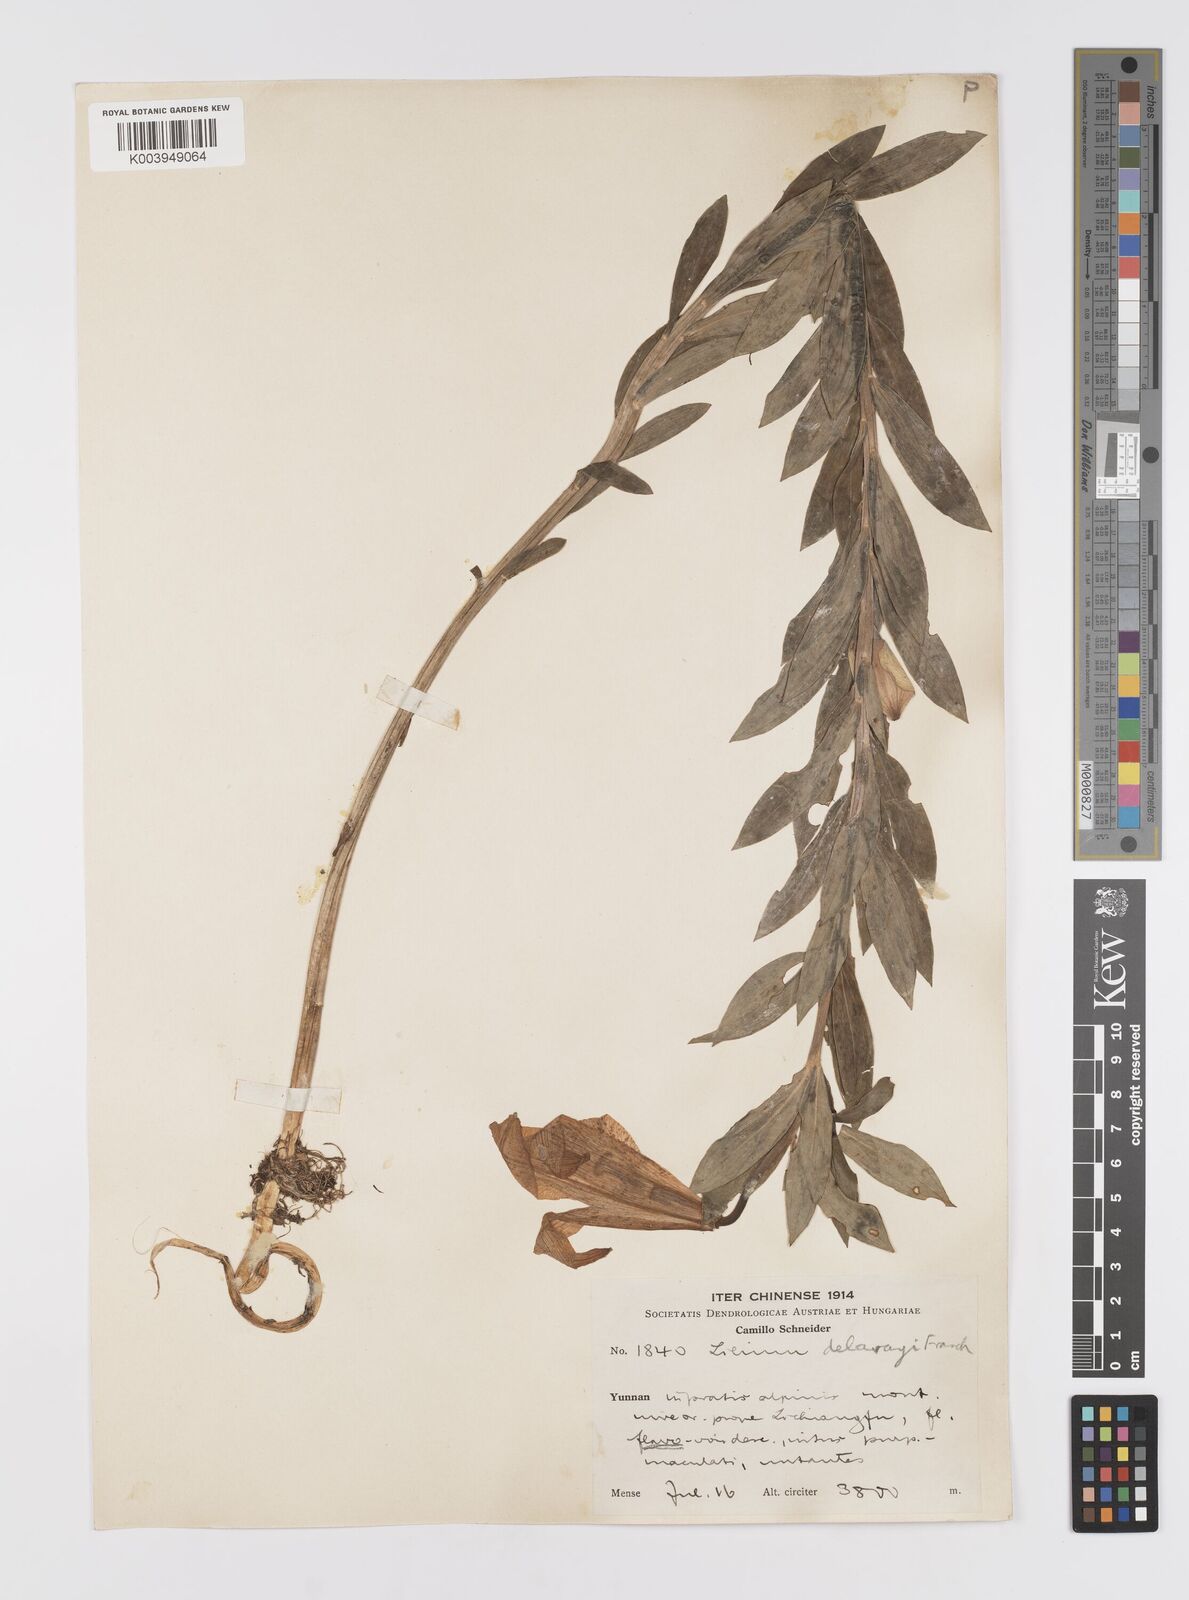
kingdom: Plantae
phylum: Tracheophyta
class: Liliopsida
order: Liliales
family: Liliaceae
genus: Lilium
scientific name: Lilium bakerianum
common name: Baker's lily
